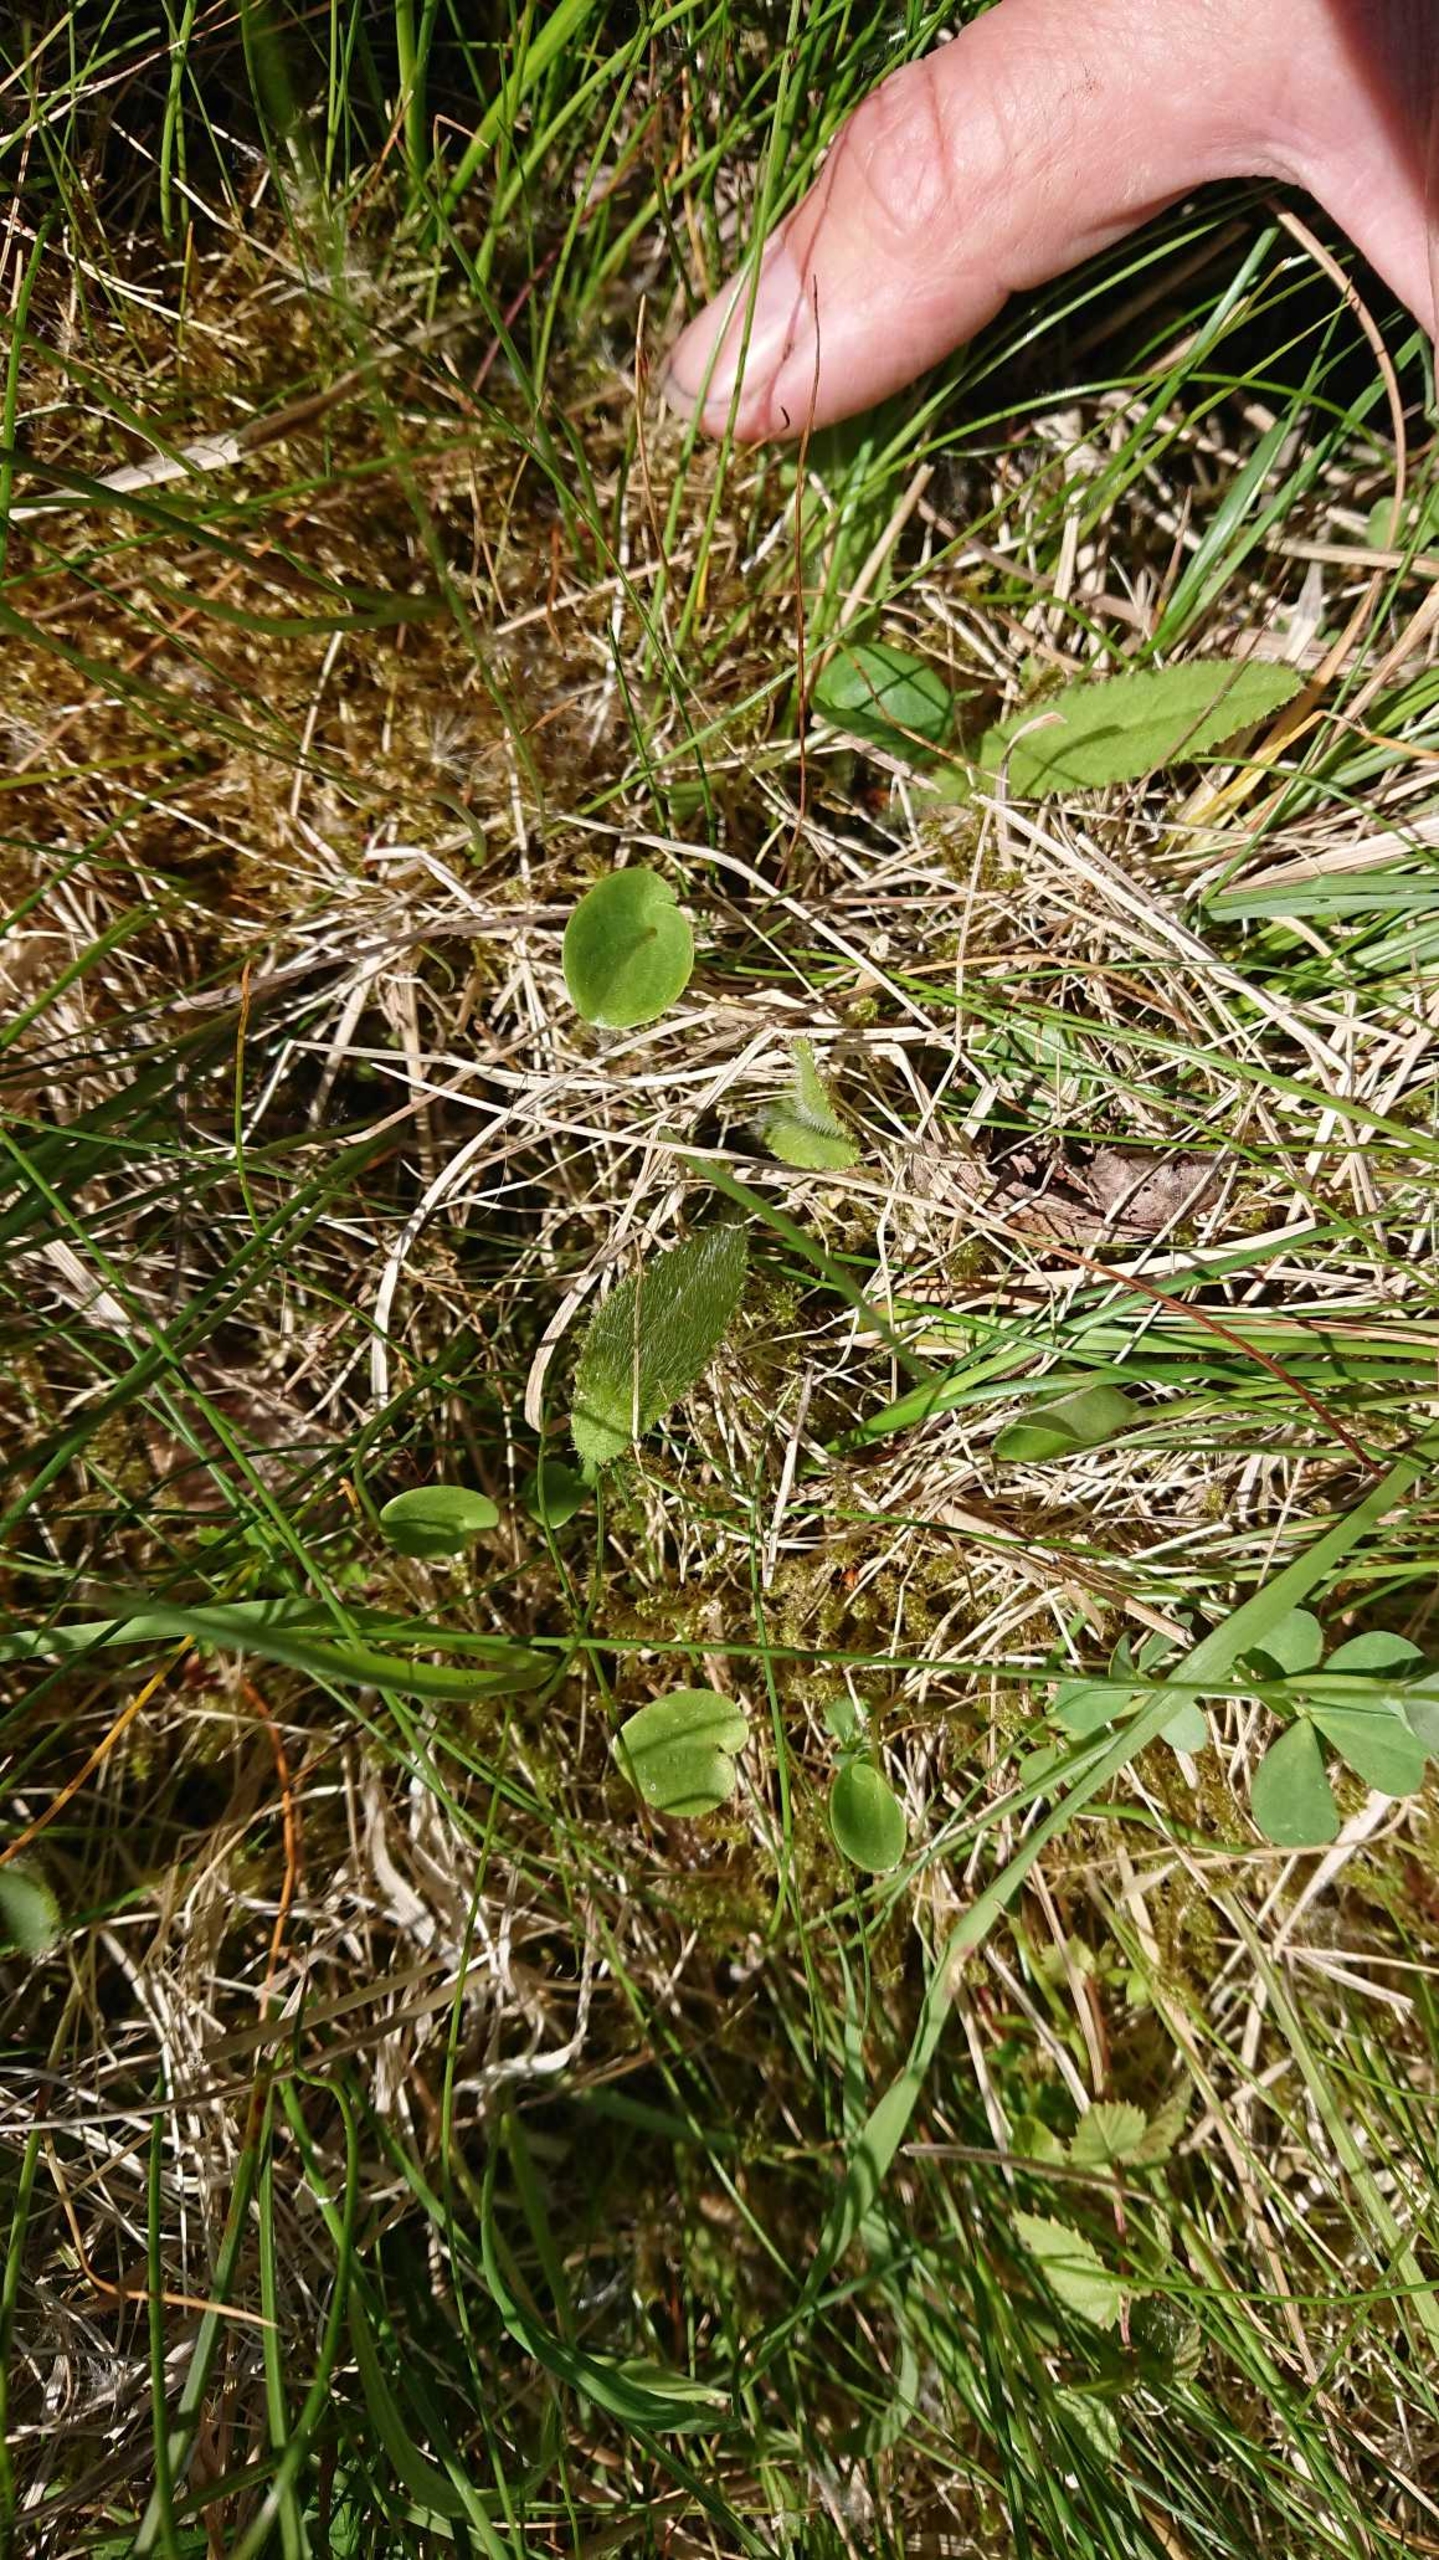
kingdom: Plantae
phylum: Tracheophyta
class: Magnoliopsida
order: Celastrales
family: Parnassiaceae
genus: Parnassia
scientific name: Parnassia palustris
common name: Leverurt
